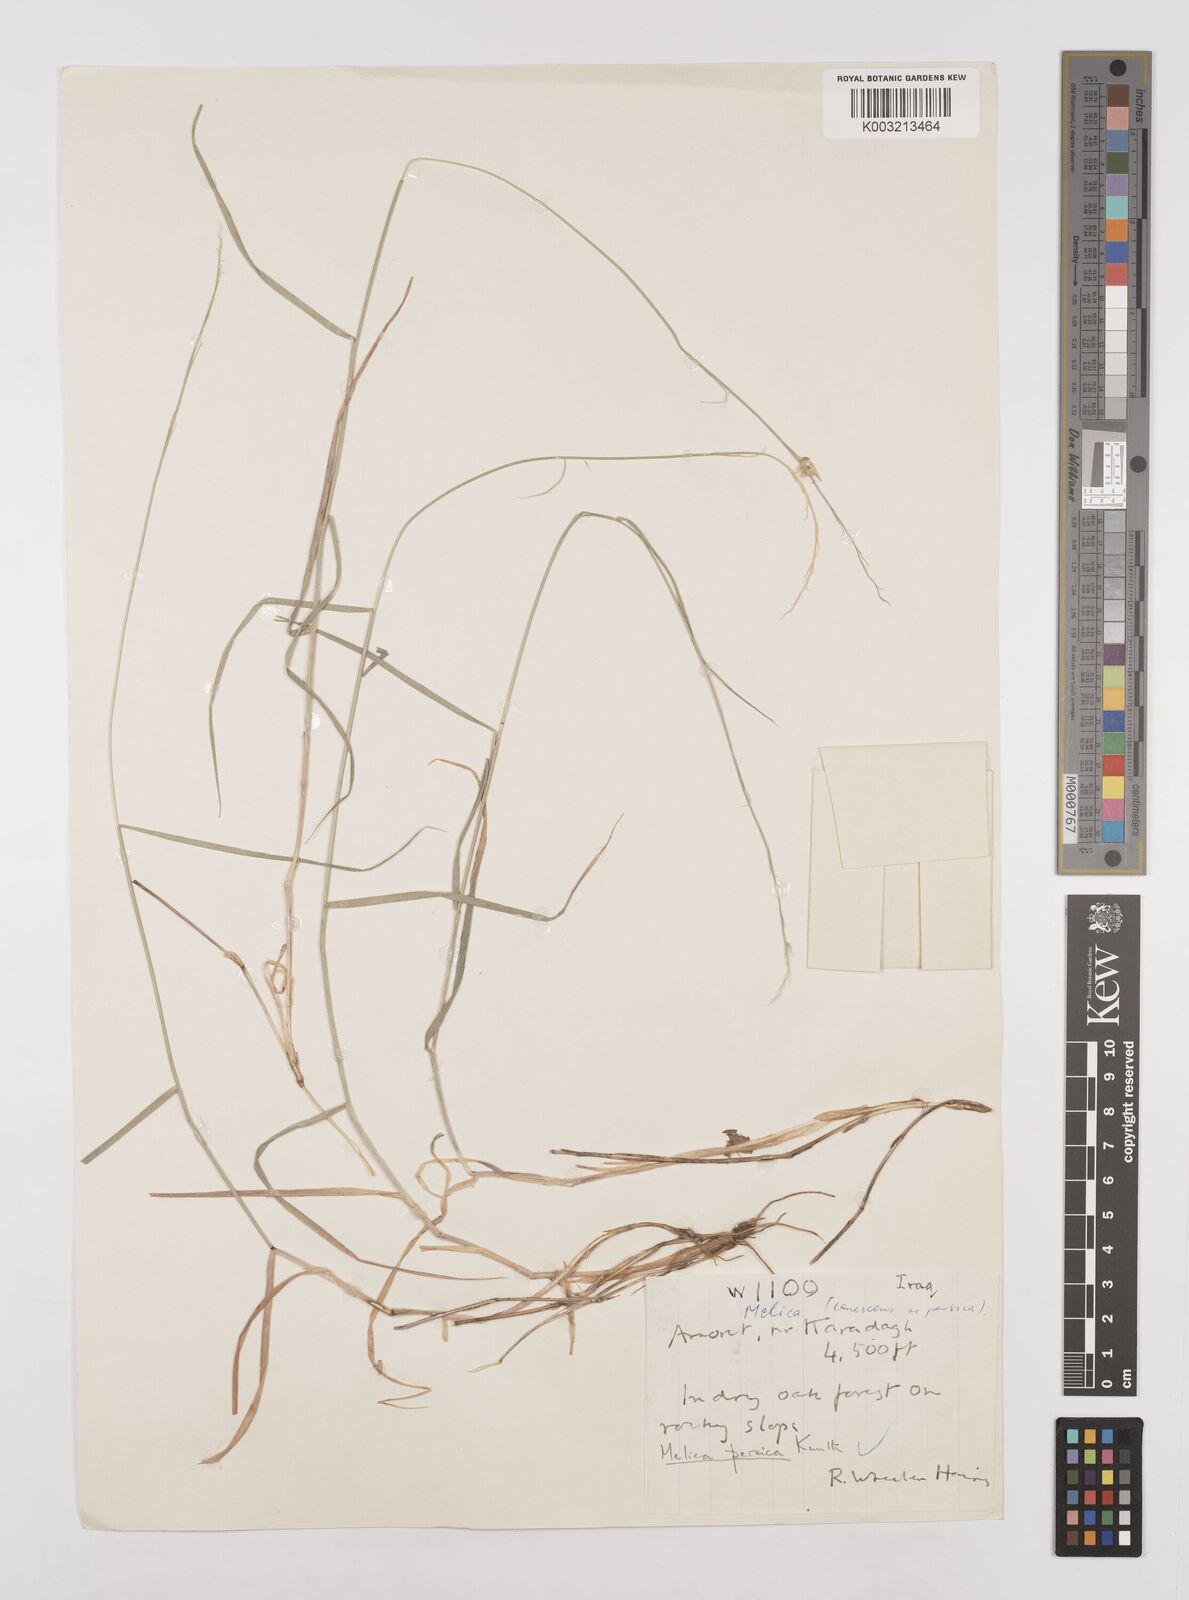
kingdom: Plantae
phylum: Tracheophyta
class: Liliopsida
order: Poales
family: Poaceae
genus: Melica
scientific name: Melica persica
